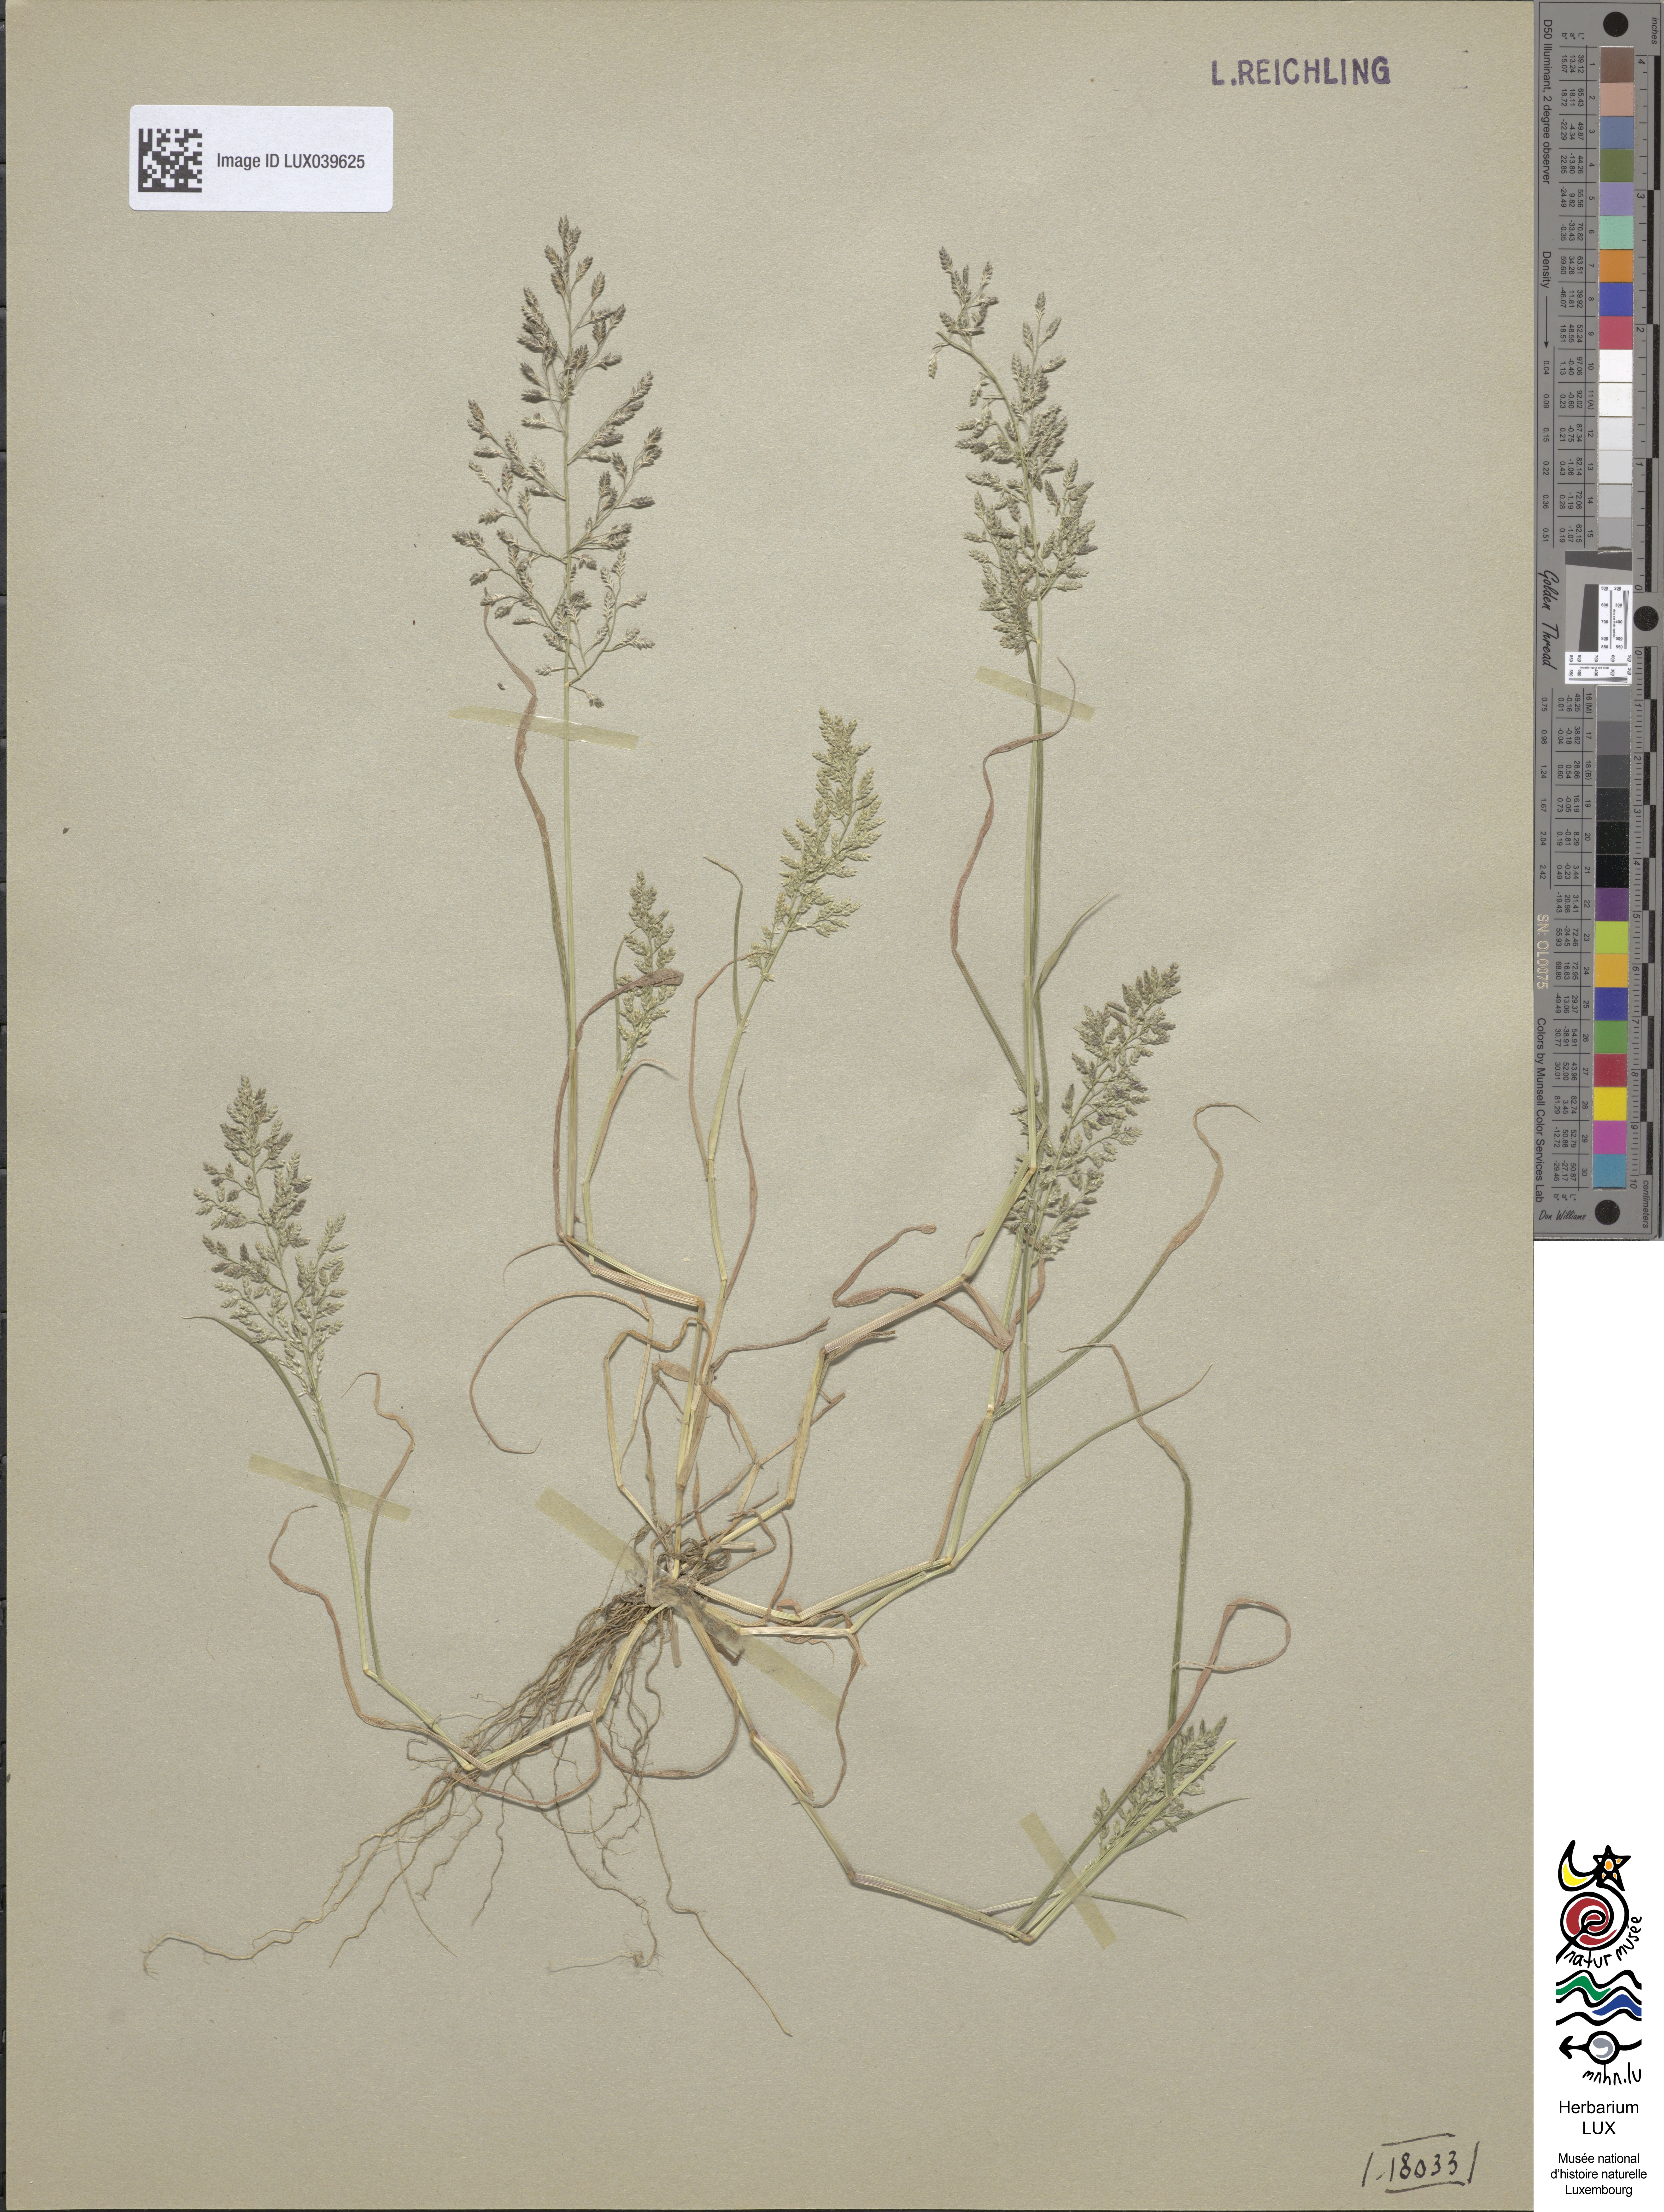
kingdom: Plantae
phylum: Tracheophyta
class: Liliopsida
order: Poales
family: Poaceae
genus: Eragrostis
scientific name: Eragrostis minor
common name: Small love-grass
